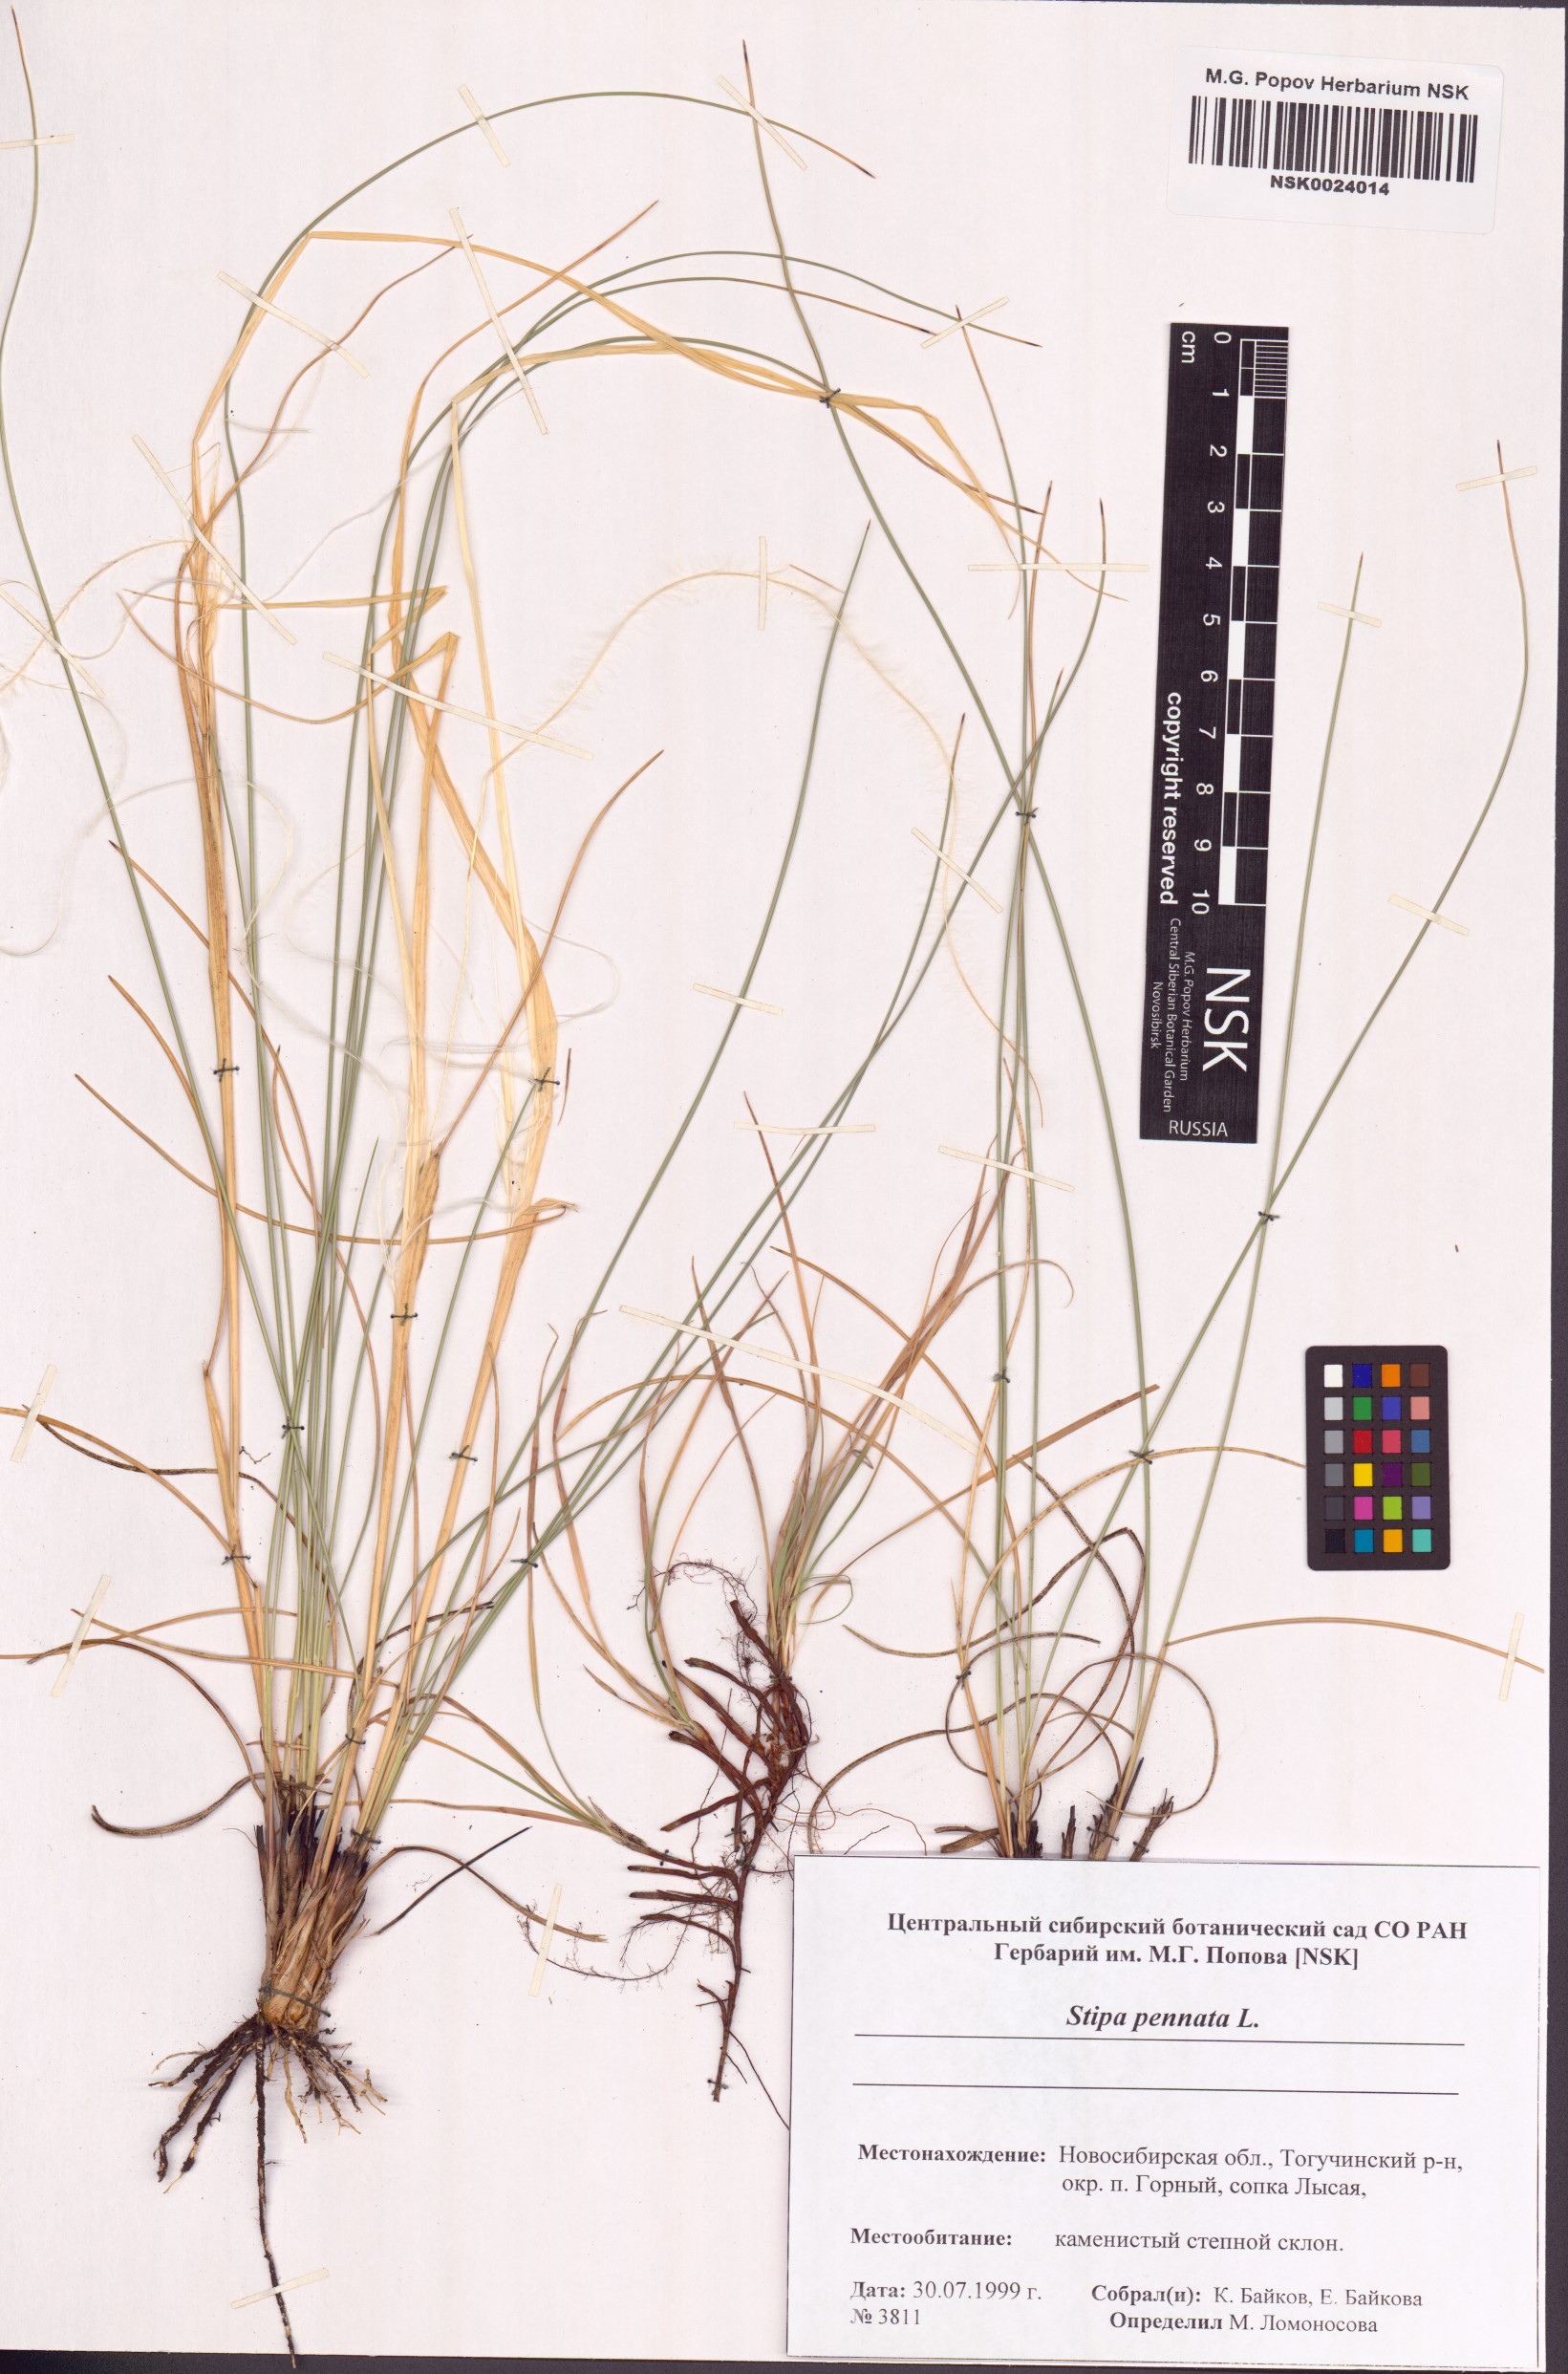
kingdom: Plantae
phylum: Tracheophyta
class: Liliopsida
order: Poales
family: Poaceae
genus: Stipa
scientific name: Stipa pennata
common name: European feather grass
